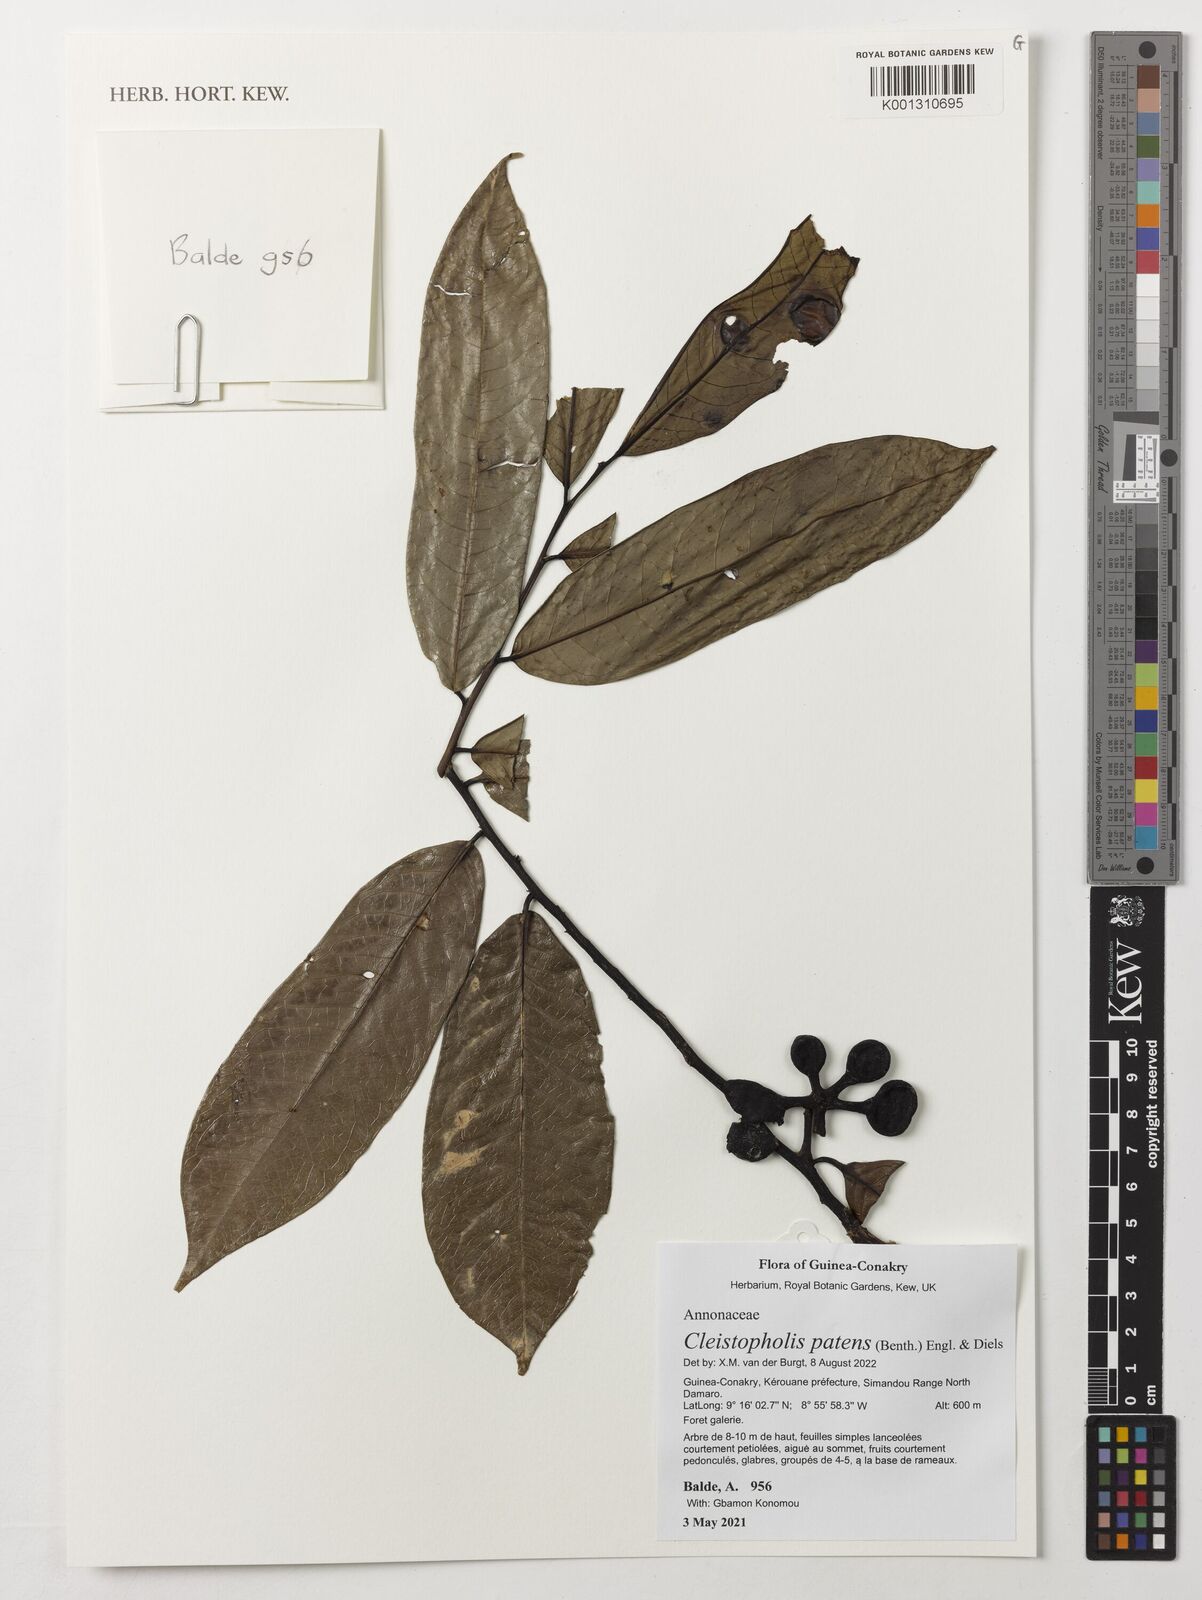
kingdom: Plantae
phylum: Tracheophyta
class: Magnoliopsida
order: Magnoliales
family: Annonaceae
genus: Cleistopholis
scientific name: Cleistopholis patens
